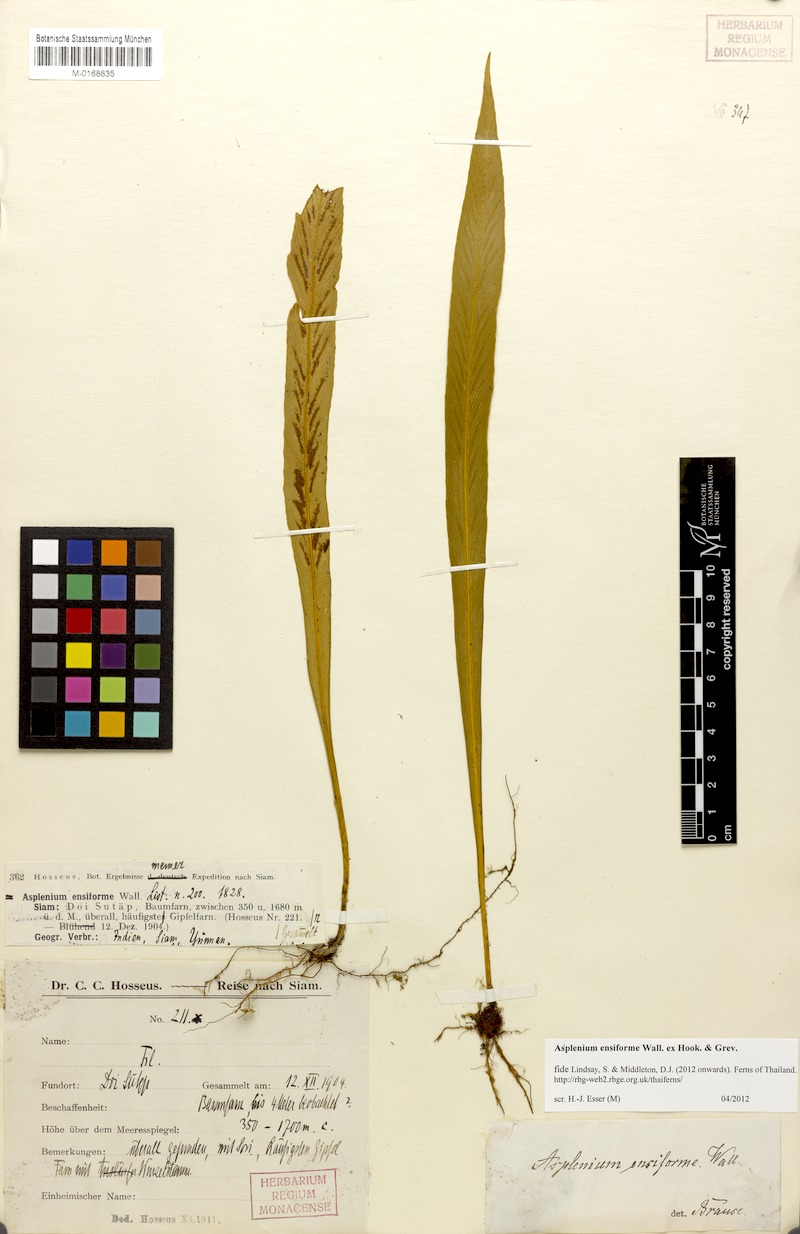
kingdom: Plantae
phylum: Tracheophyta
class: Polypodiopsida
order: Polypodiales
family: Aspleniaceae
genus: Asplenium
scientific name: Asplenium ensiforme
